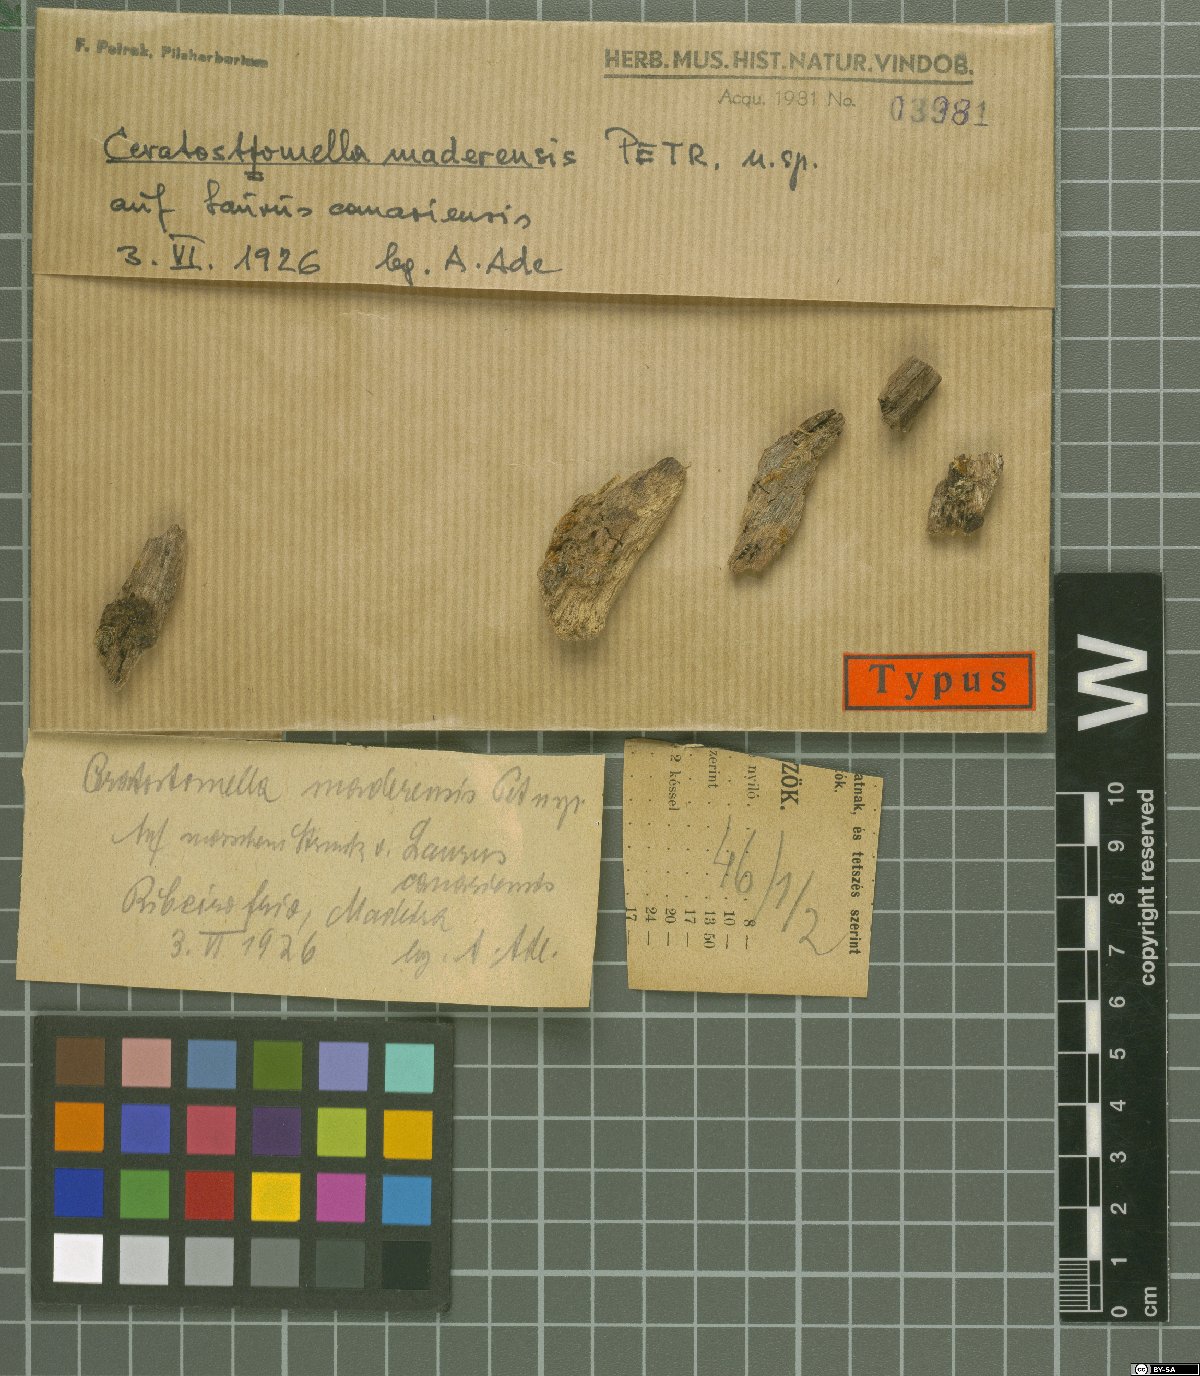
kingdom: Fungi
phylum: Ascomycota
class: Sordariomycetes
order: Boliniales
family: Boliniaceae
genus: Ceratostomella
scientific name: Ceratostomella maderensis
